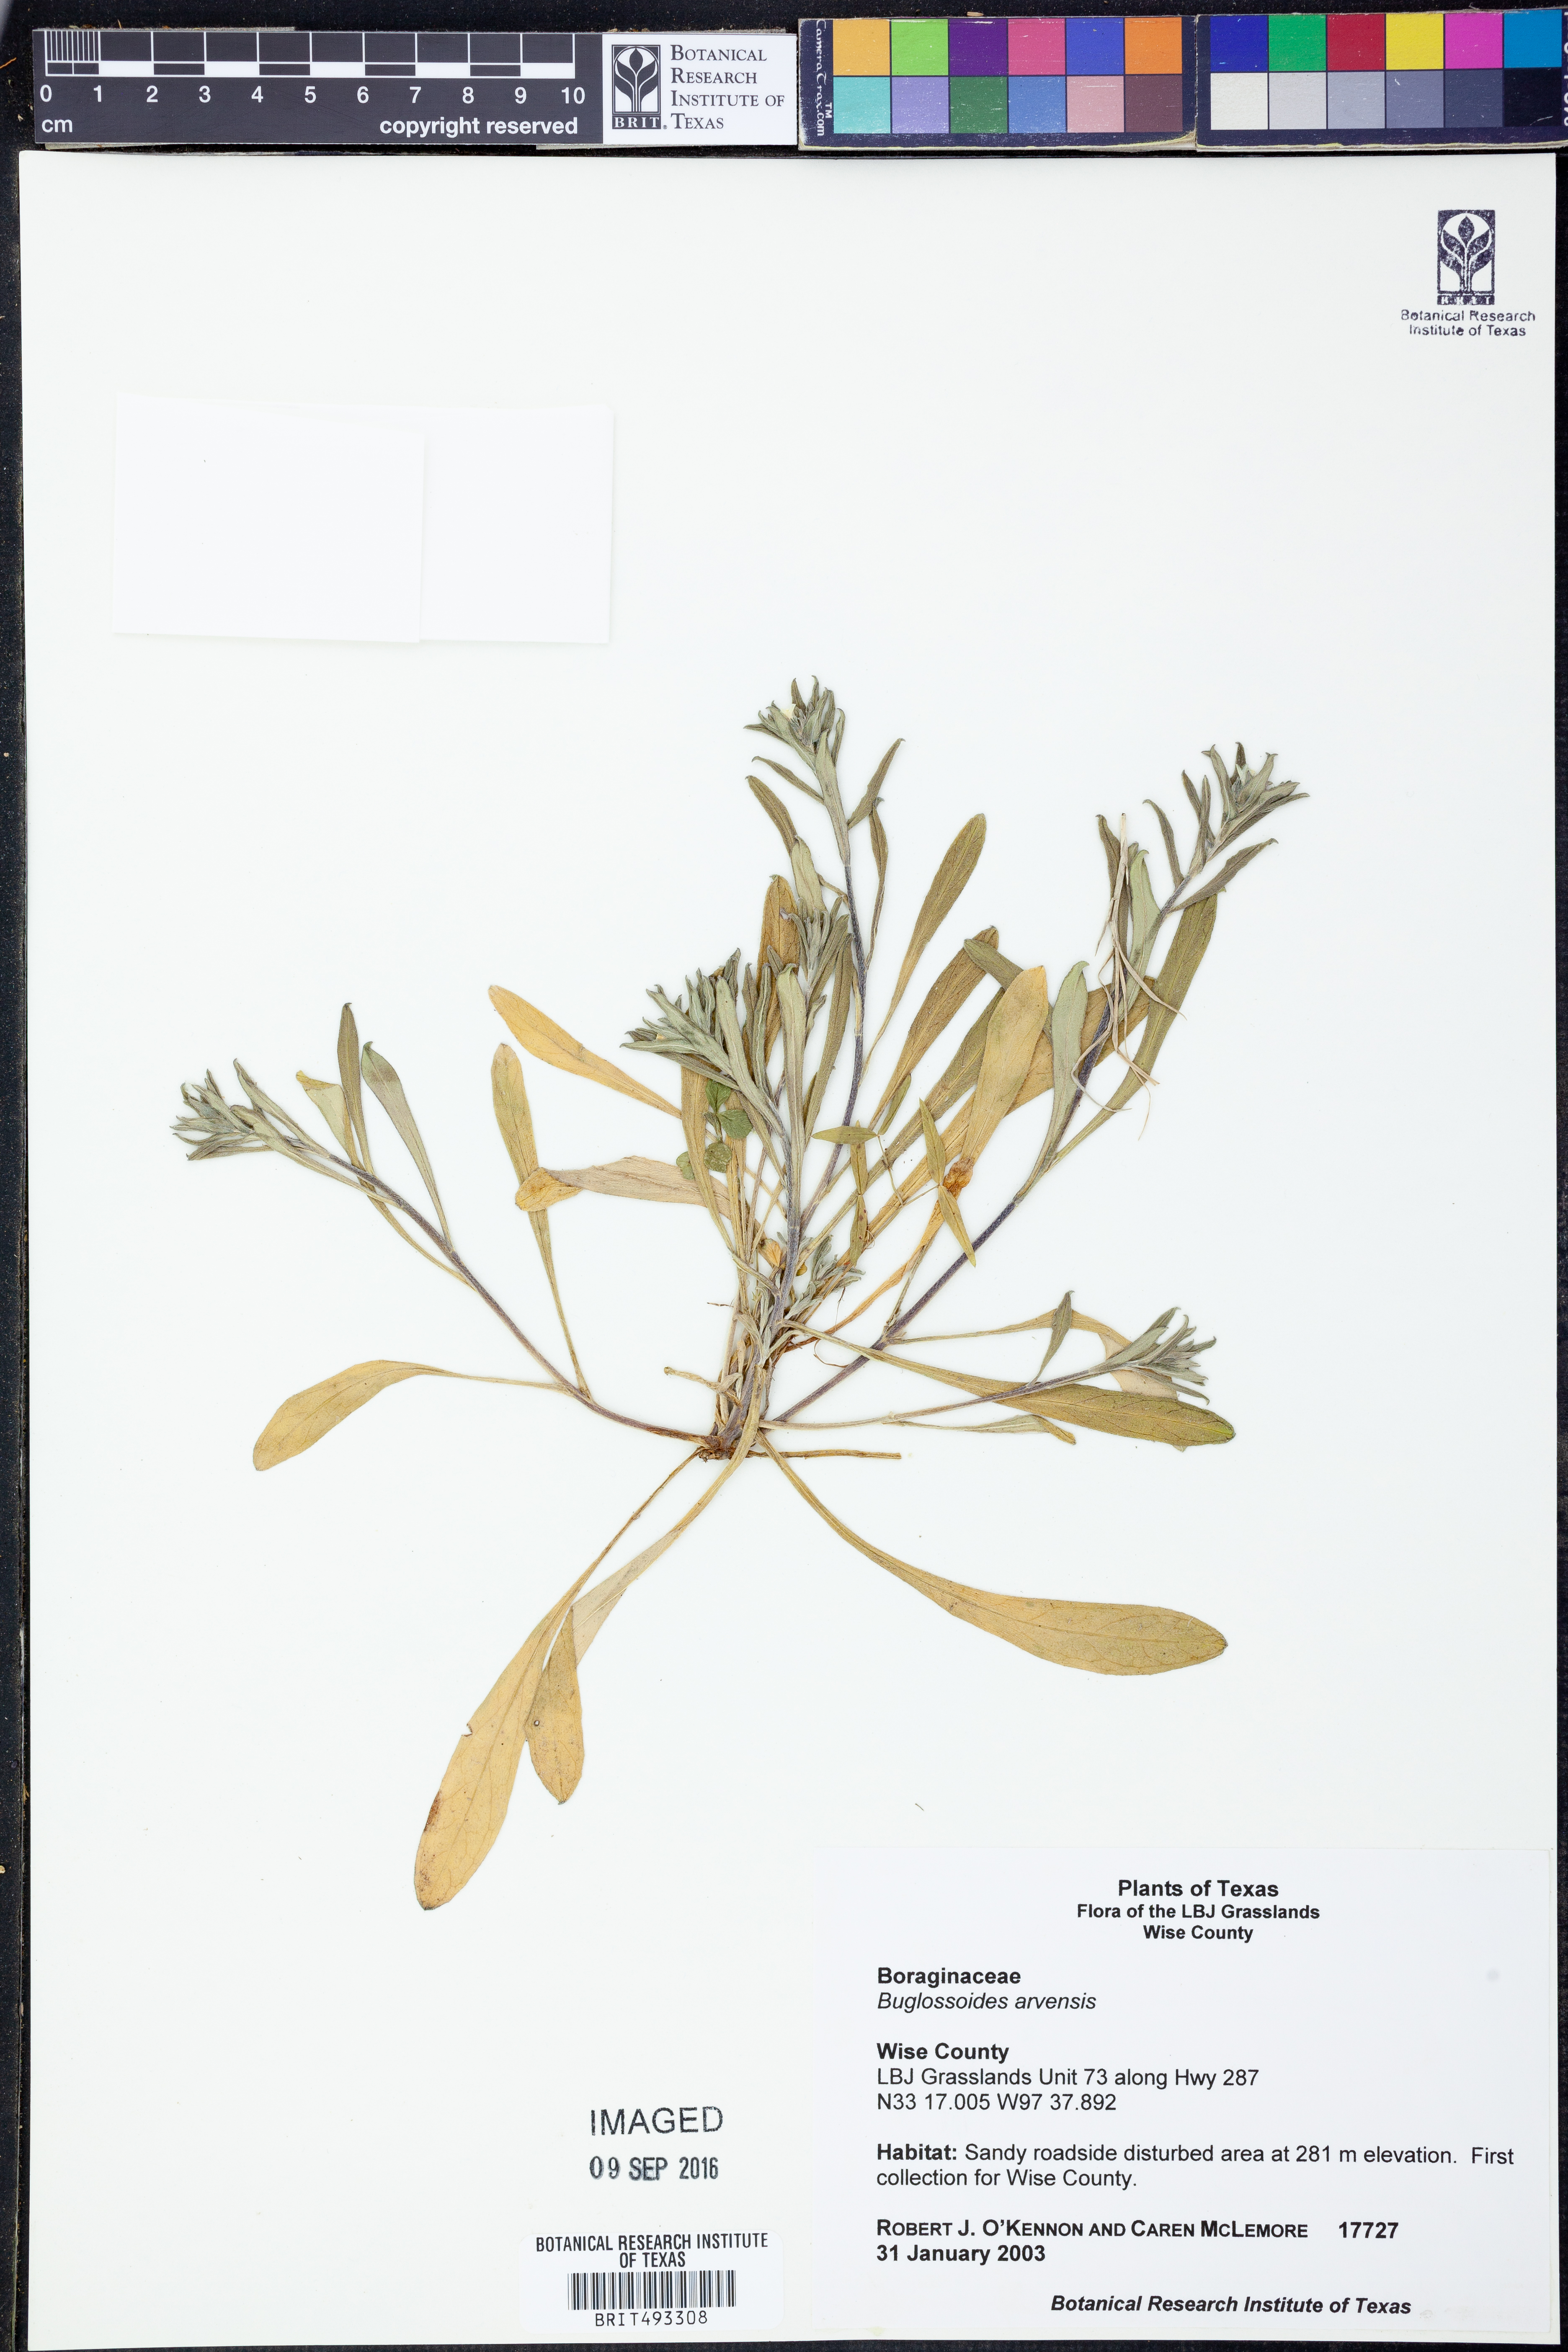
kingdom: Plantae
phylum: Tracheophyta
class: Magnoliopsida
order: Boraginales
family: Boraginaceae
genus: Buglossoides
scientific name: Buglossoides arvensis
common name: Corn gromwell
